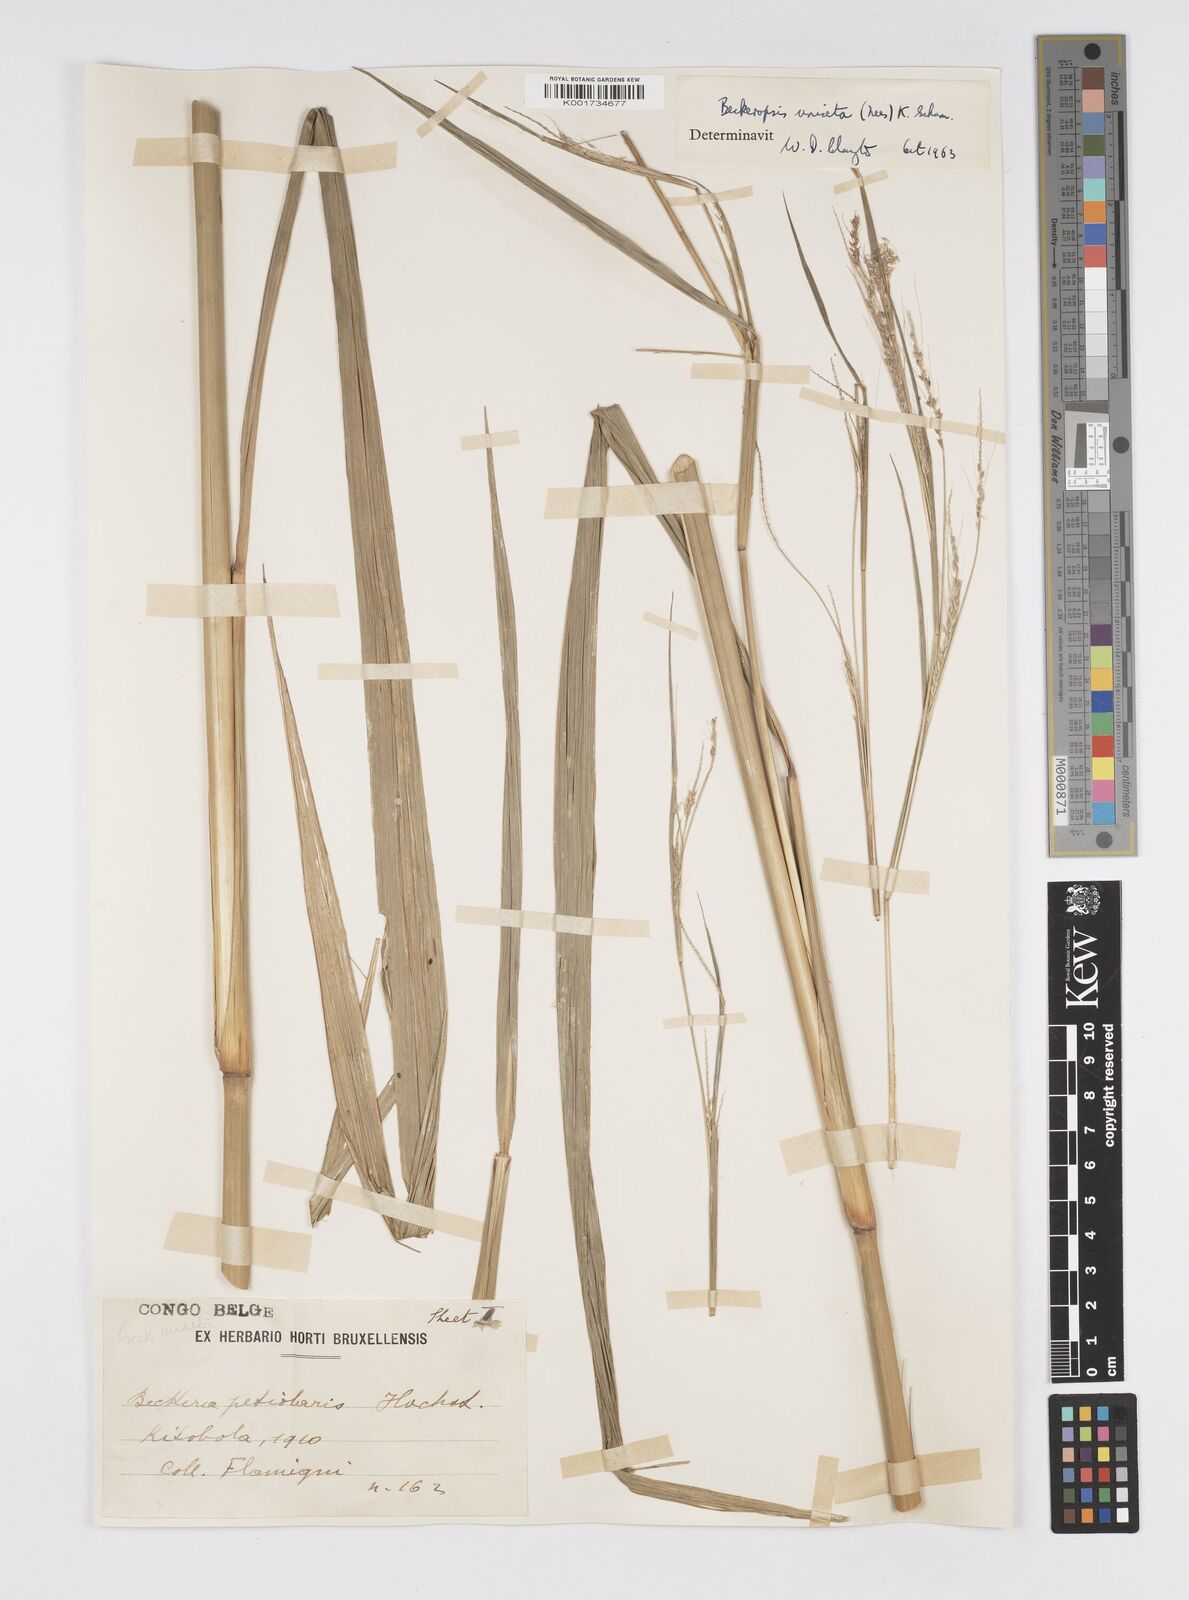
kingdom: Plantae
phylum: Tracheophyta
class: Liliopsida
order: Poales
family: Poaceae
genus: Cenchrus
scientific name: Cenchrus unisetus
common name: Natal grass
